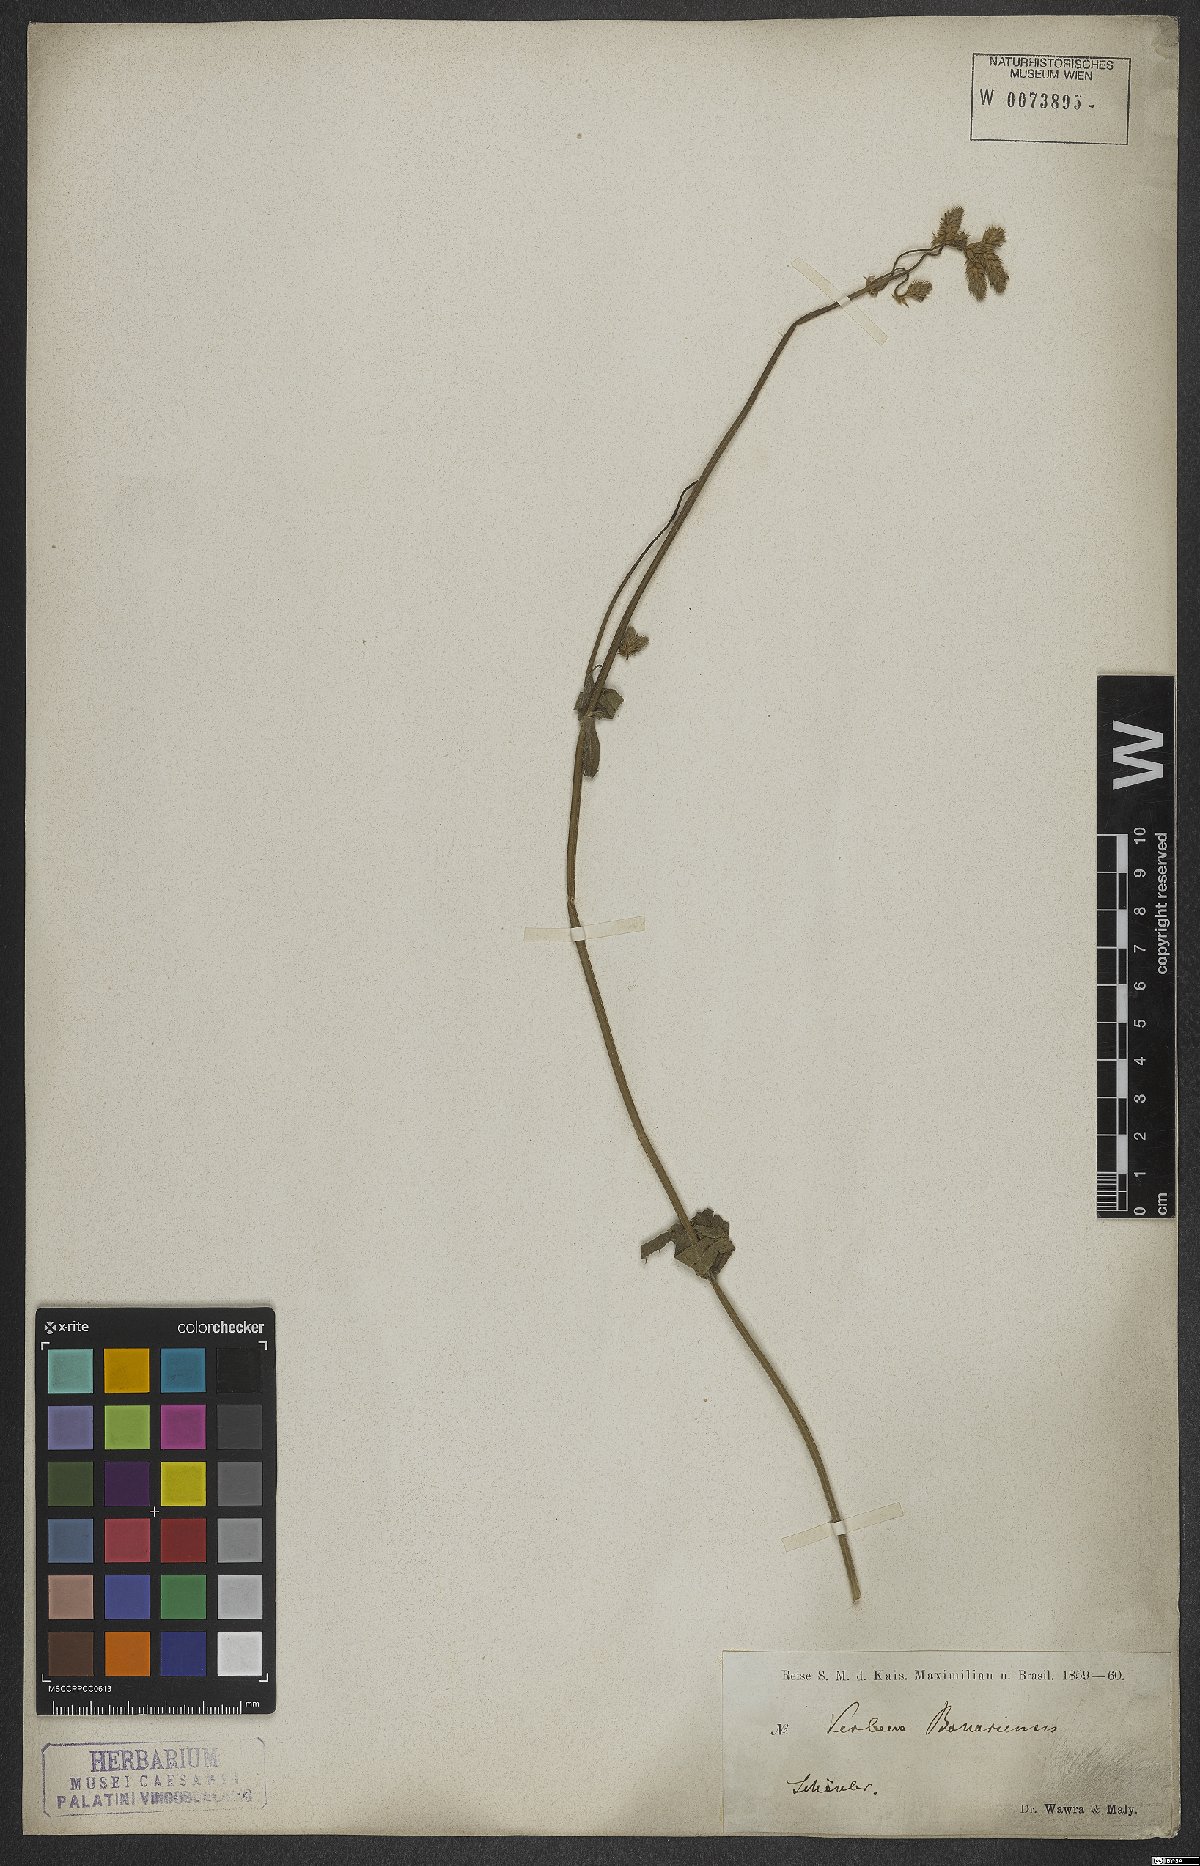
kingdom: Plantae
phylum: Tracheophyta
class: Magnoliopsida
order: Lamiales
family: Verbenaceae
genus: Verbena
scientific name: Verbena bonariensis
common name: Purpletop vervain
